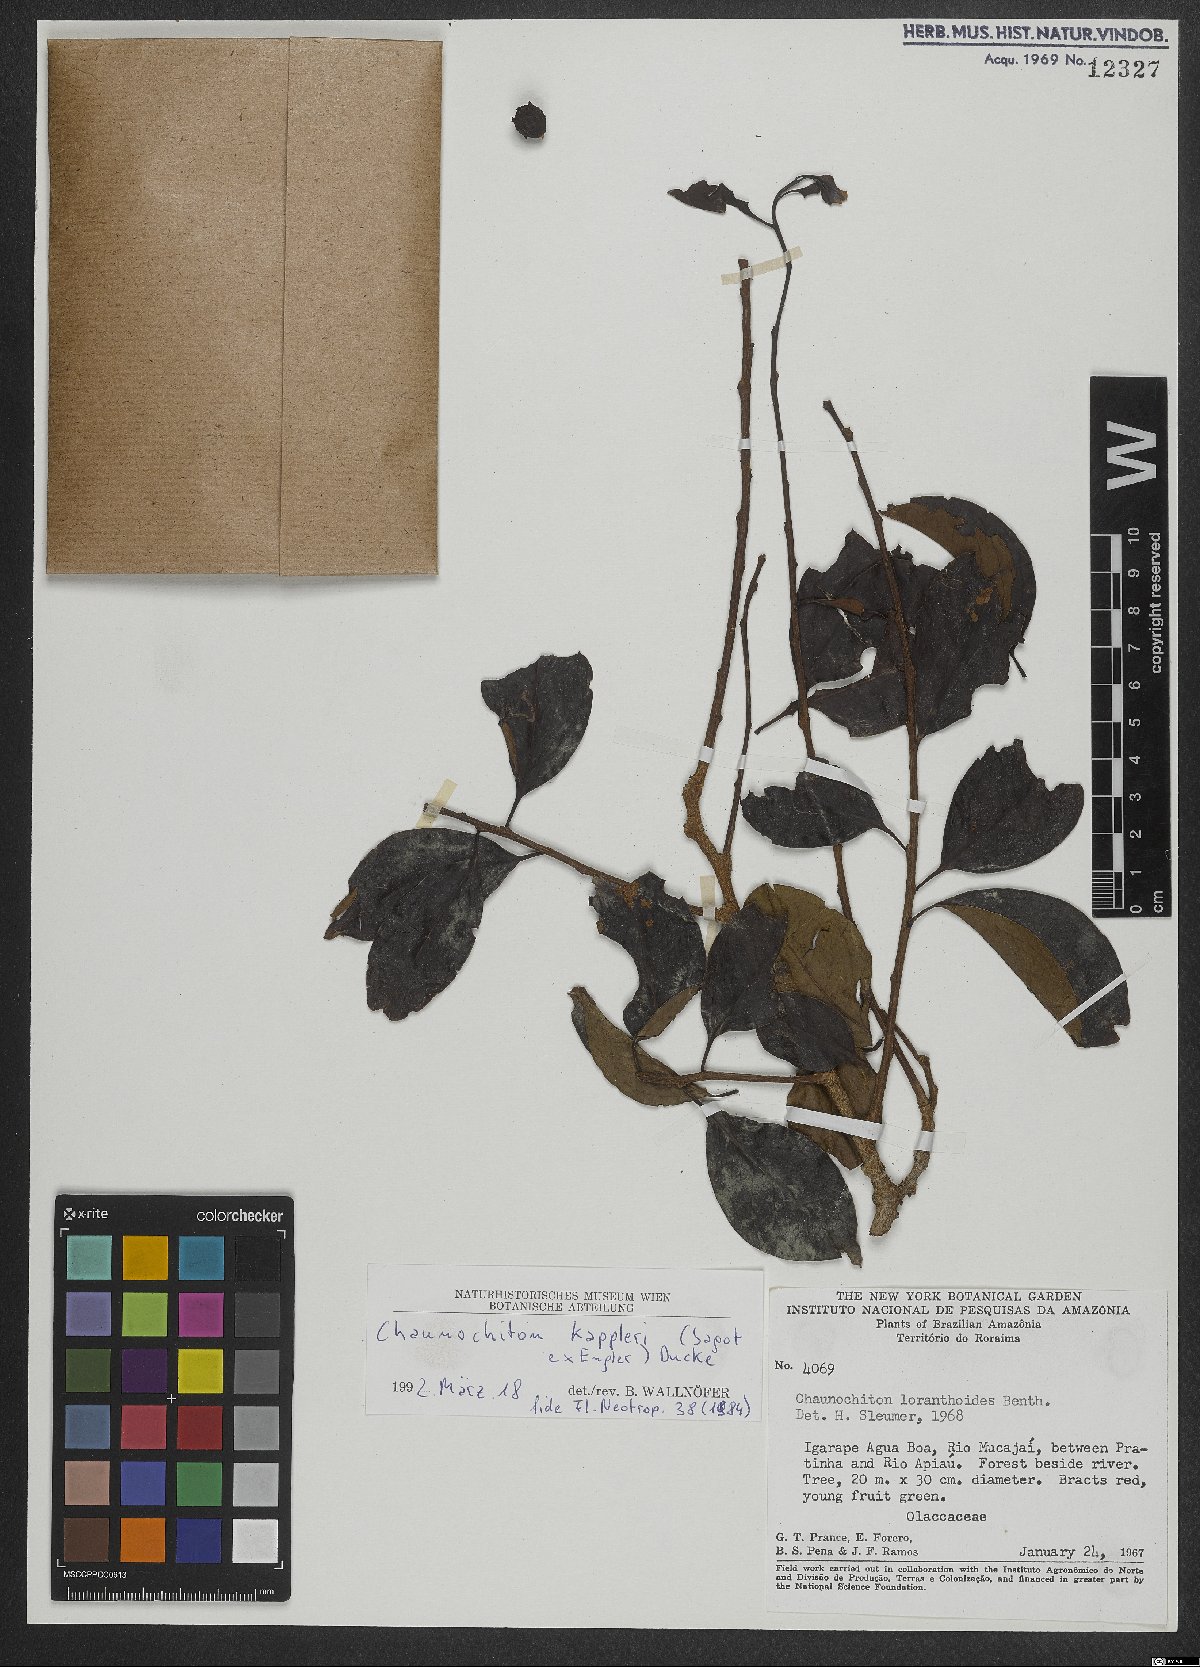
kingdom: Plantae
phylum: Tracheophyta
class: Magnoliopsida
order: Santalales
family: Aptandraceae
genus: Chaunochiton
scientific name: Chaunochiton kappleri
